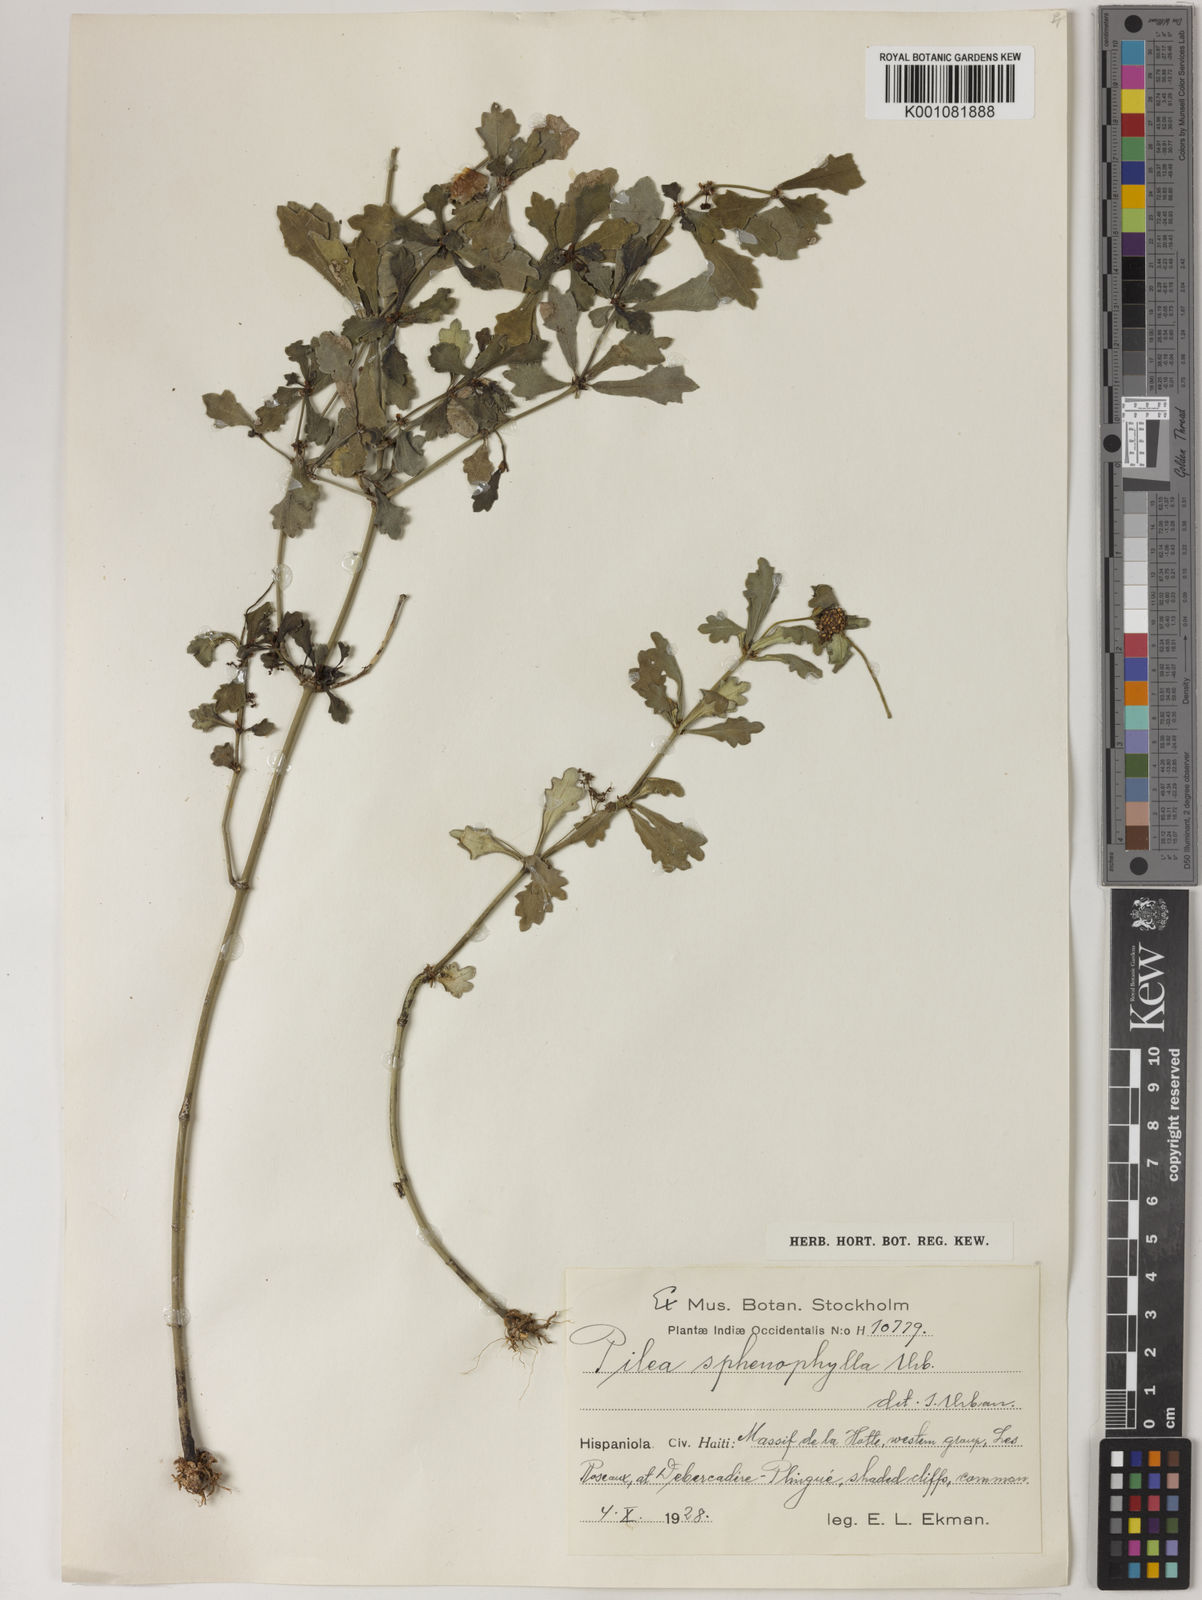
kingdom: Plantae
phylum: Tracheophyta
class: Magnoliopsida
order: Rosales
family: Urticaceae
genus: Pilea
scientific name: Pilea sphenophylla
